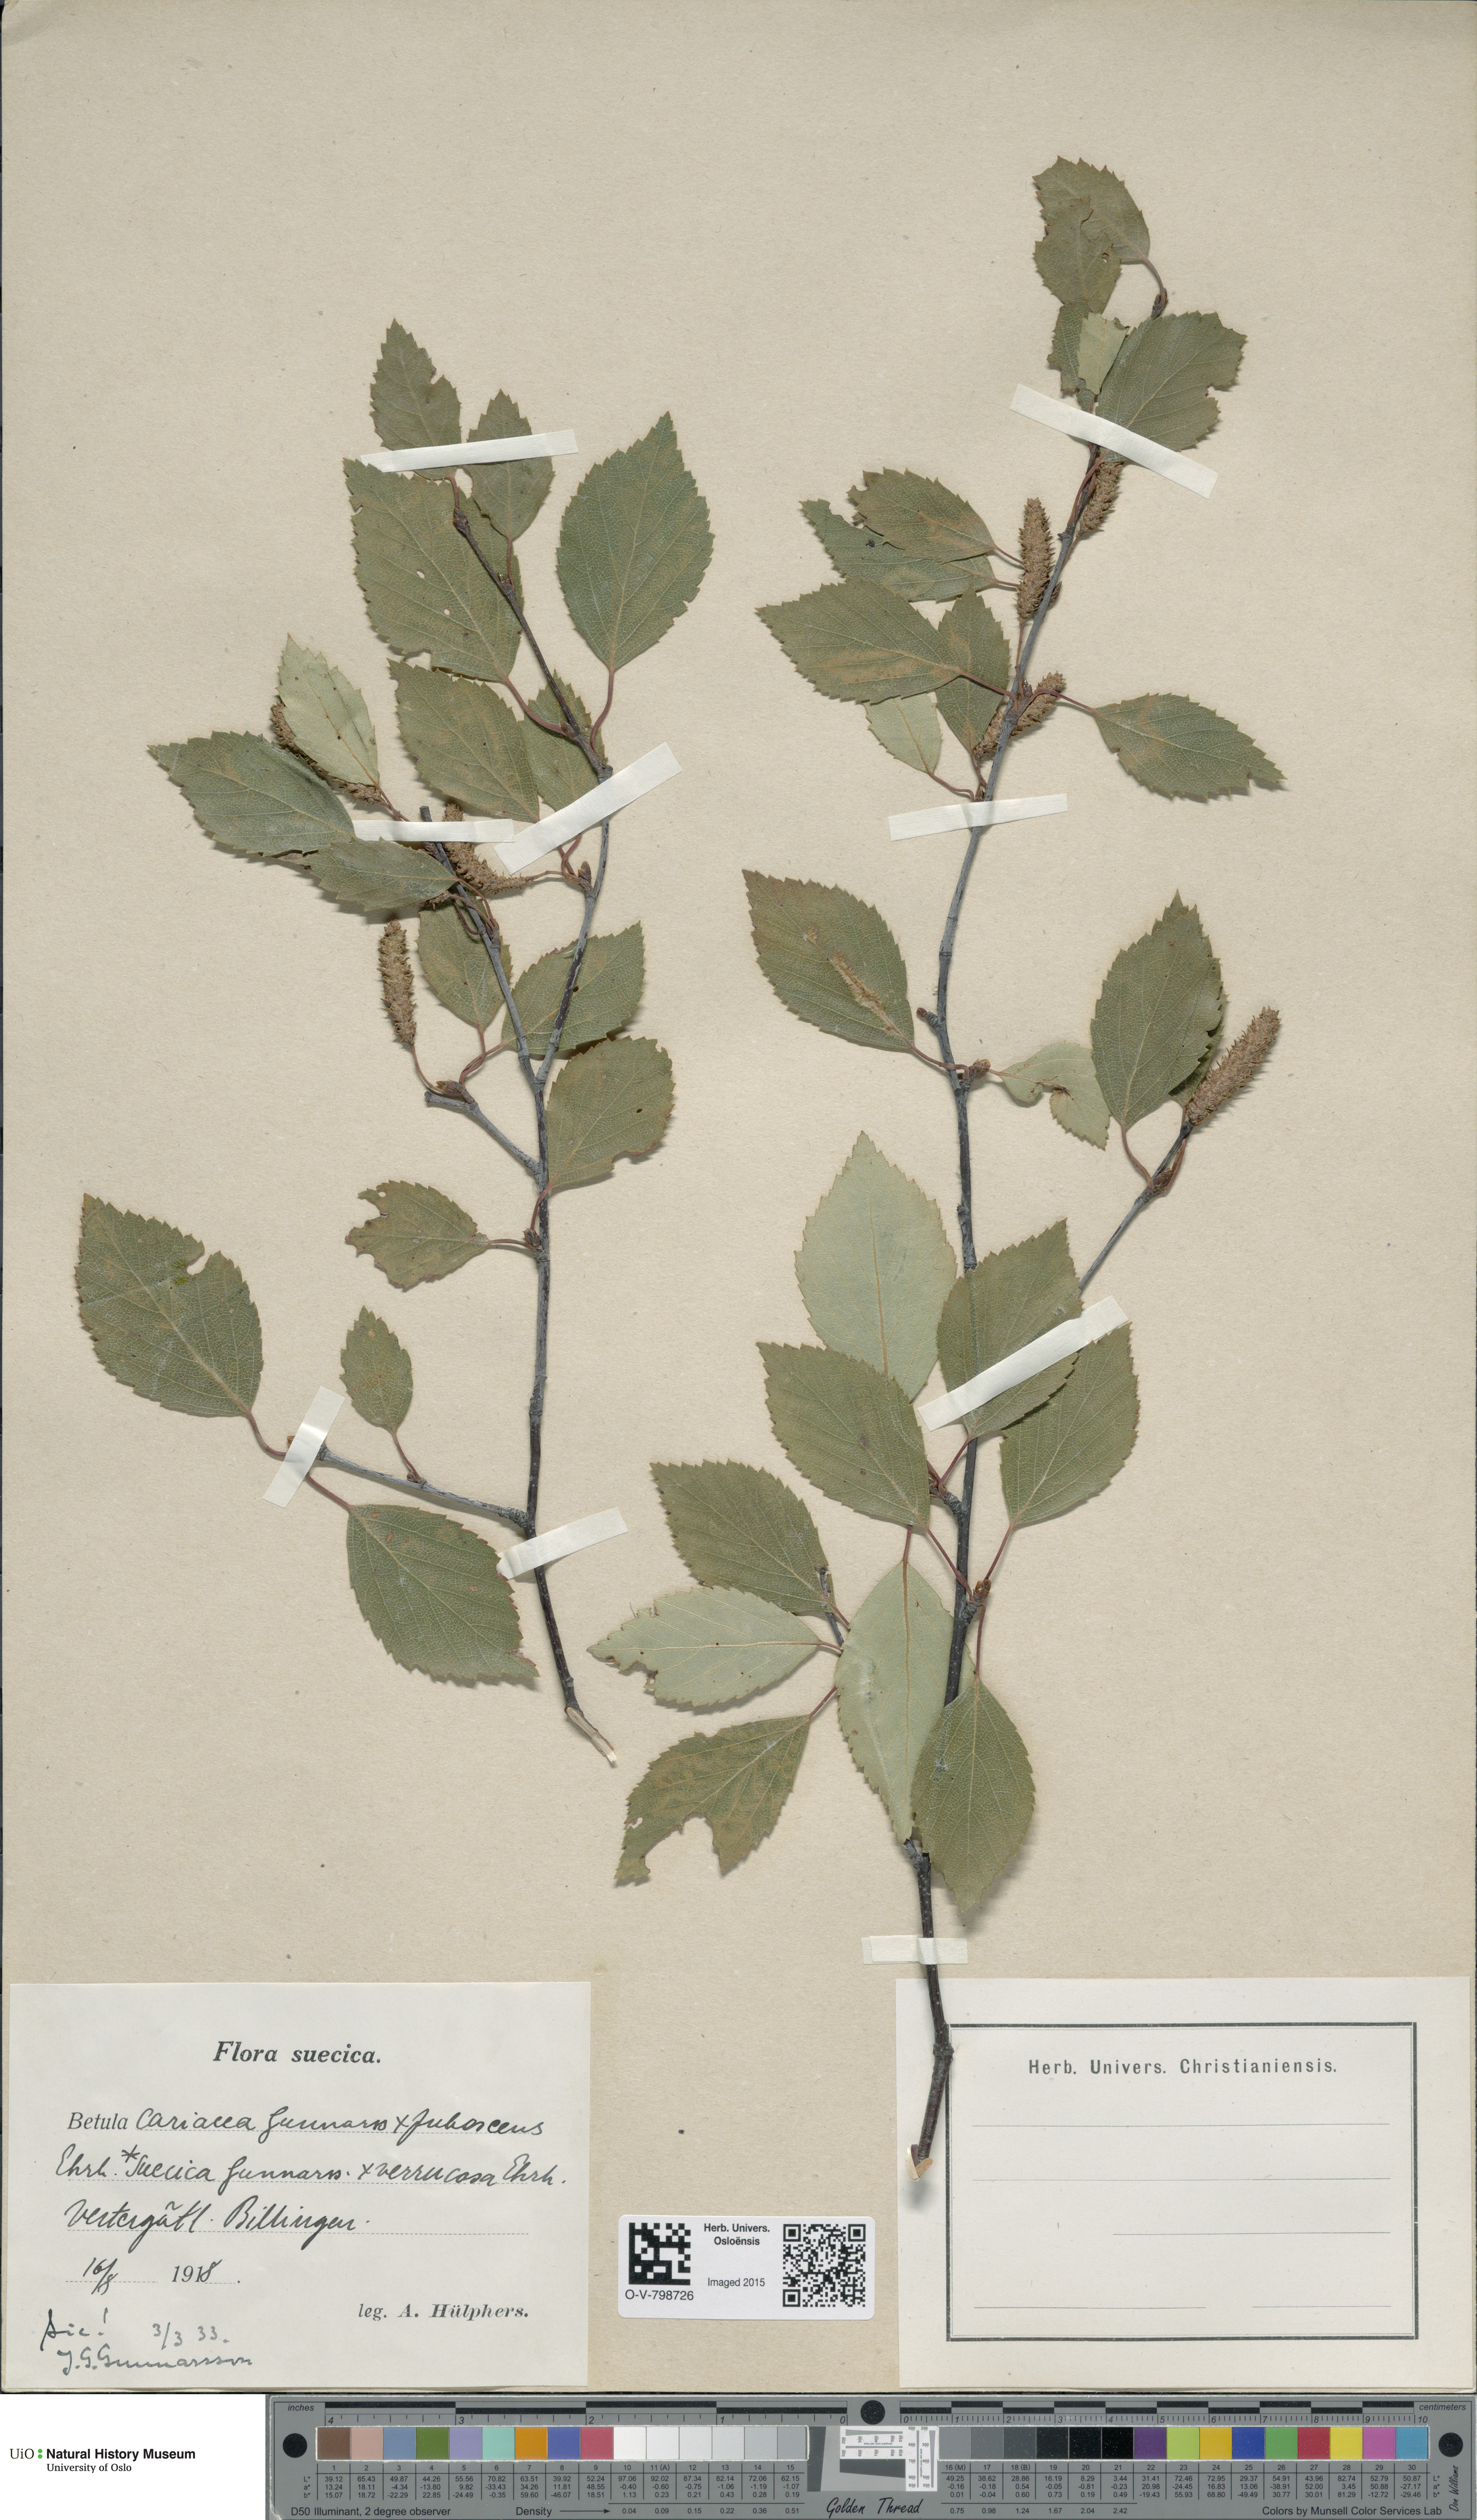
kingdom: Plantae
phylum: Tracheophyta
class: Magnoliopsida
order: Fagales
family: Betulaceae
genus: Betula
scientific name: Betula pubescens
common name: Downy birch
